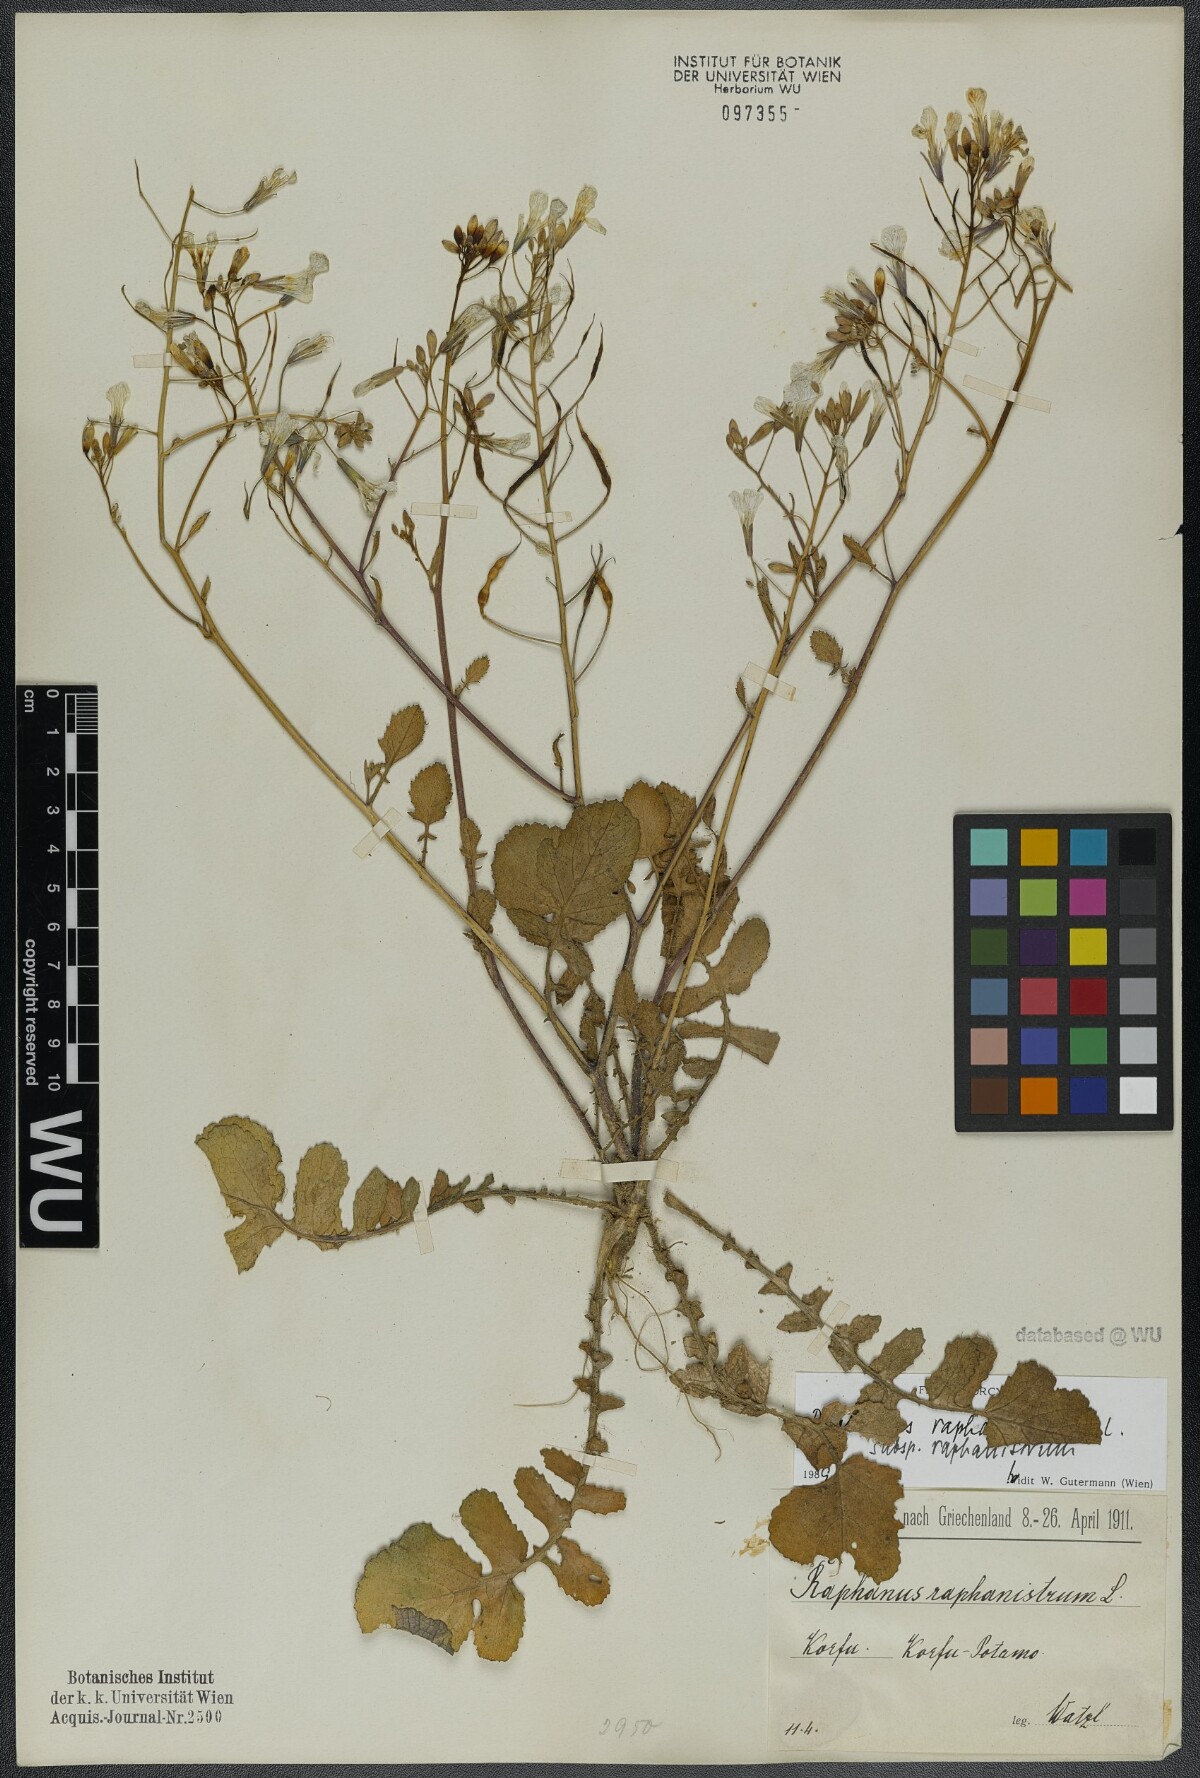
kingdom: Plantae
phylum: Tracheophyta
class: Magnoliopsida
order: Brassicales
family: Brassicaceae
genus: Raphanus
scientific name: Raphanus raphanistrum
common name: Wild radish
